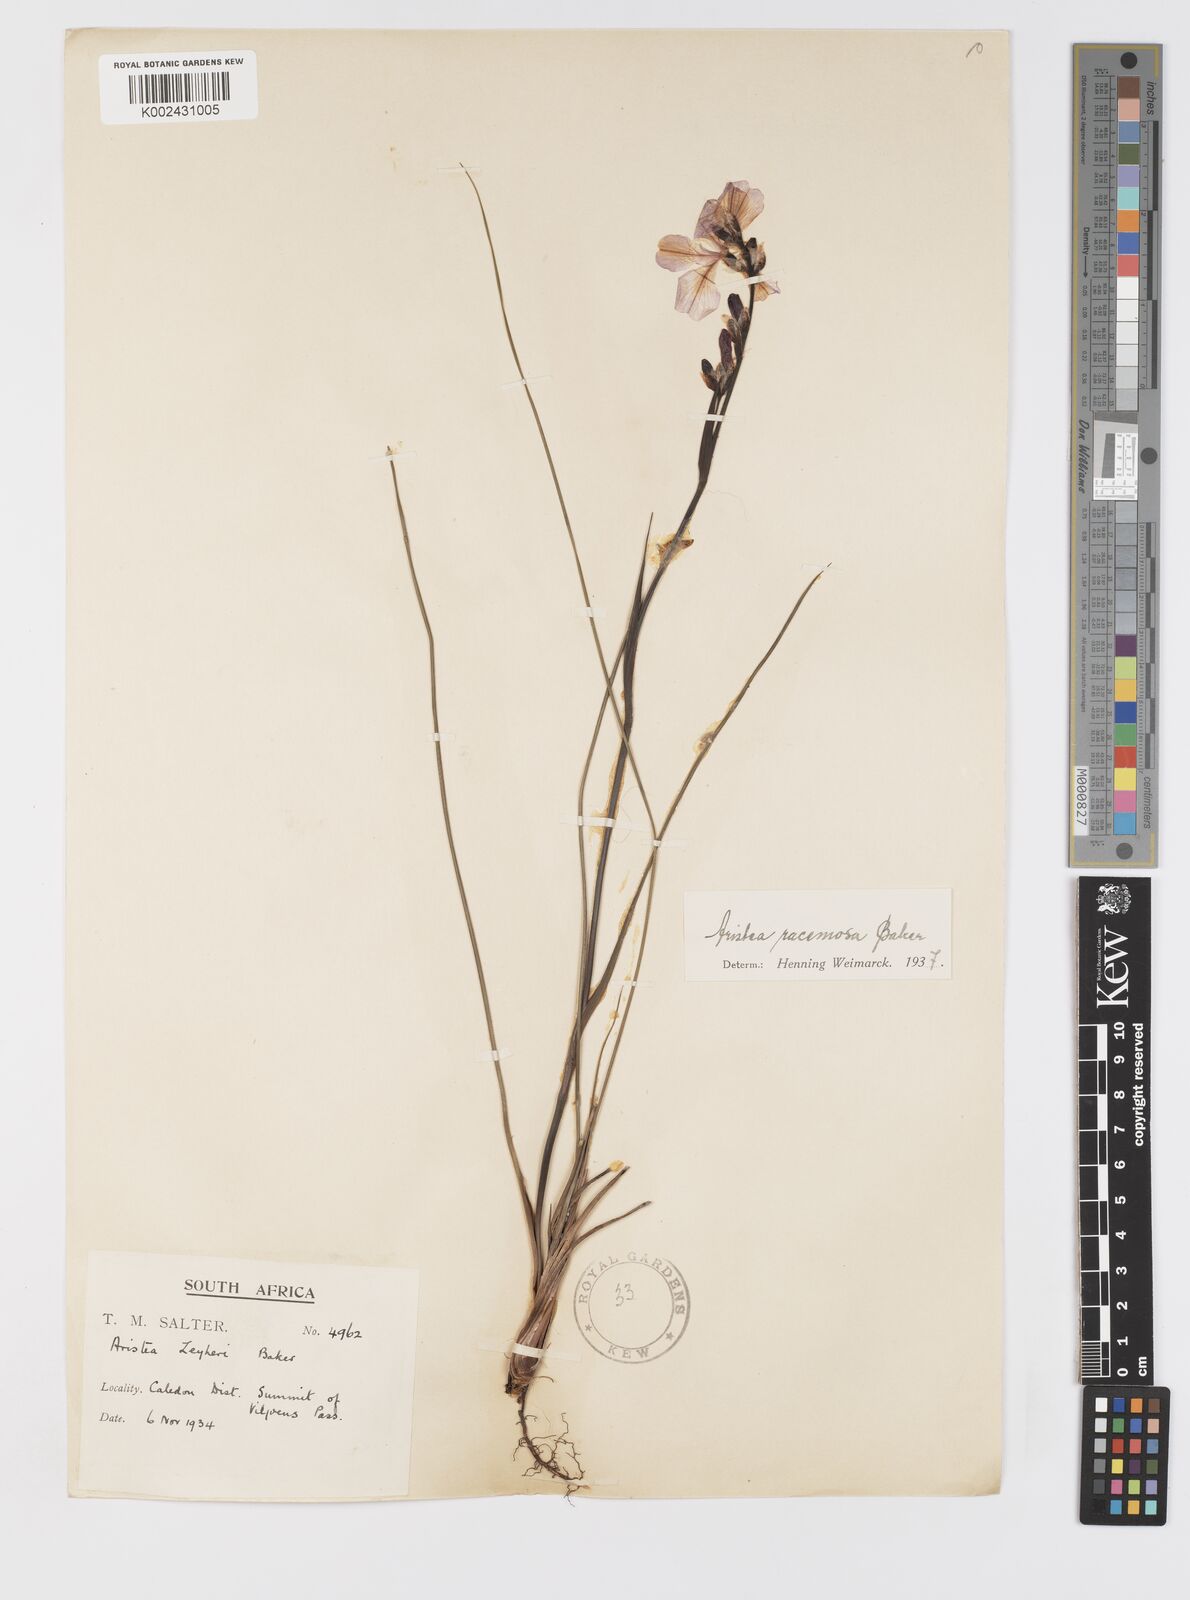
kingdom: Plantae
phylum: Tracheophyta
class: Liliopsida
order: Asparagales
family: Iridaceae
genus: Aristea
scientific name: Aristea racemosa
